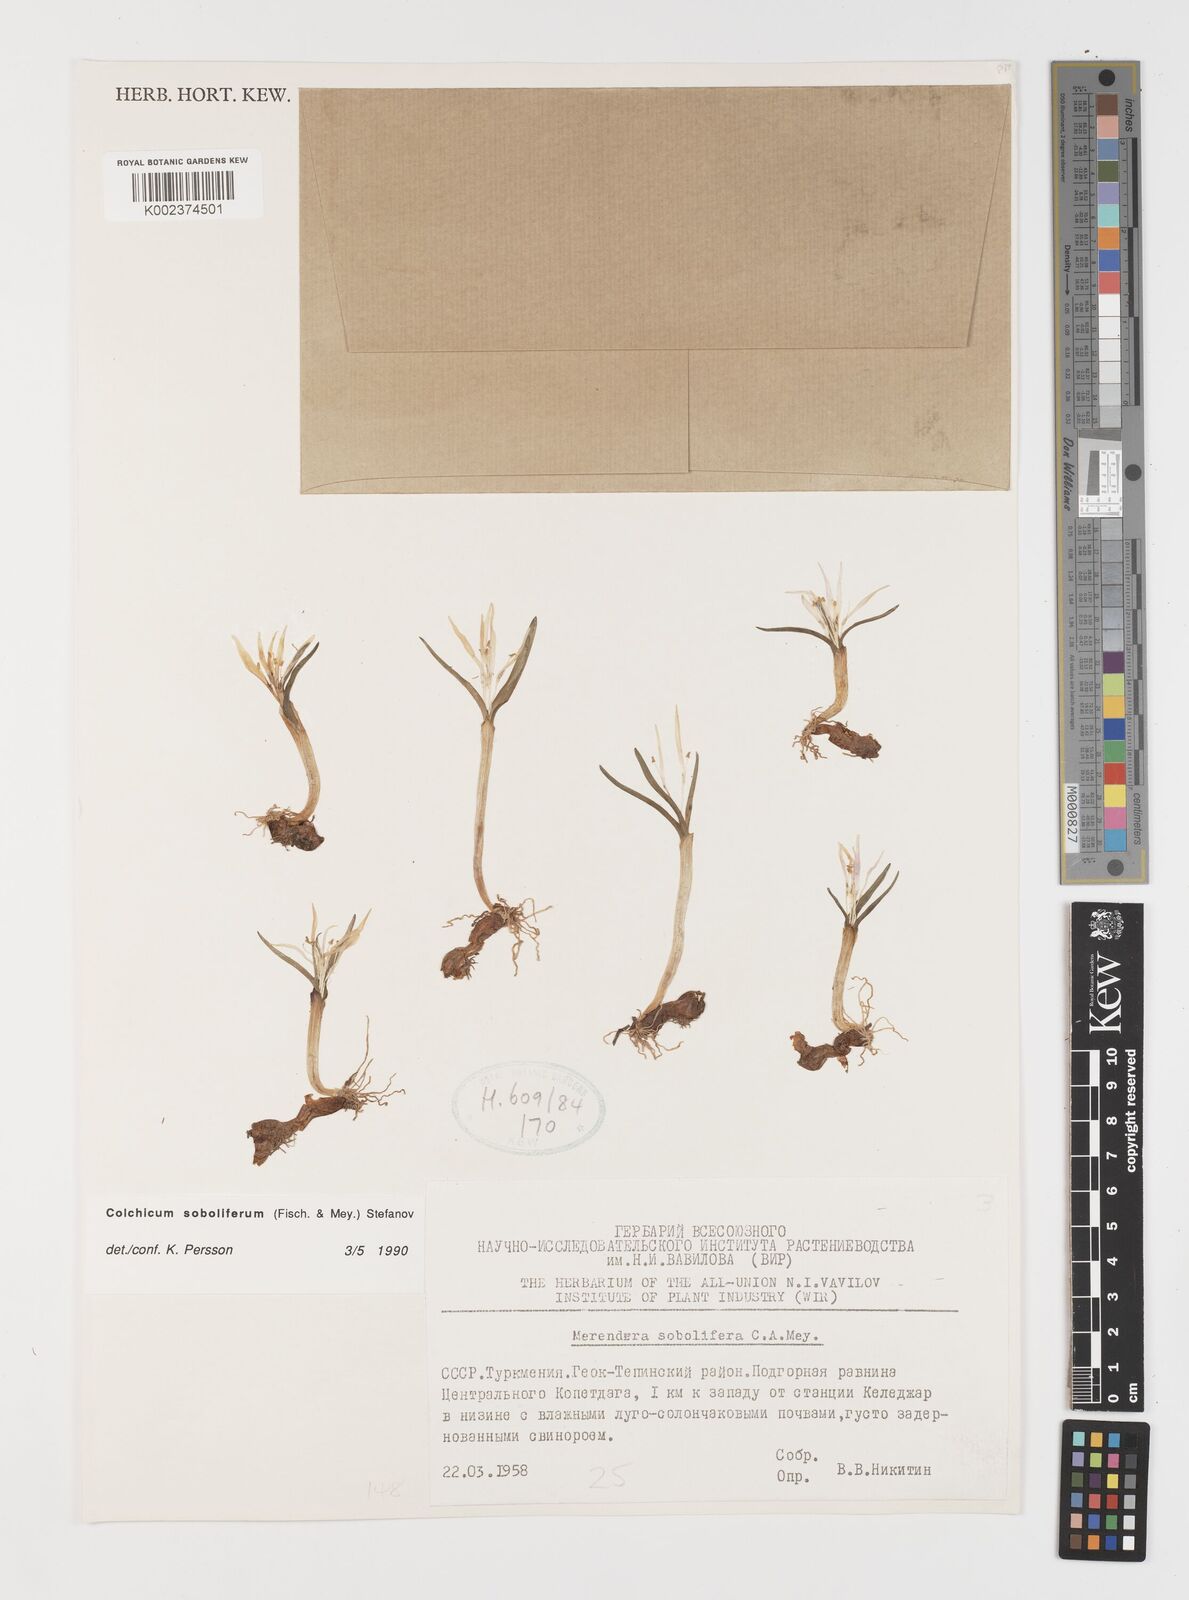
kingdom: Plantae
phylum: Tracheophyta
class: Liliopsida
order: Liliales
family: Colchicaceae
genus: Colchicum
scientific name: Colchicum soboliferum
